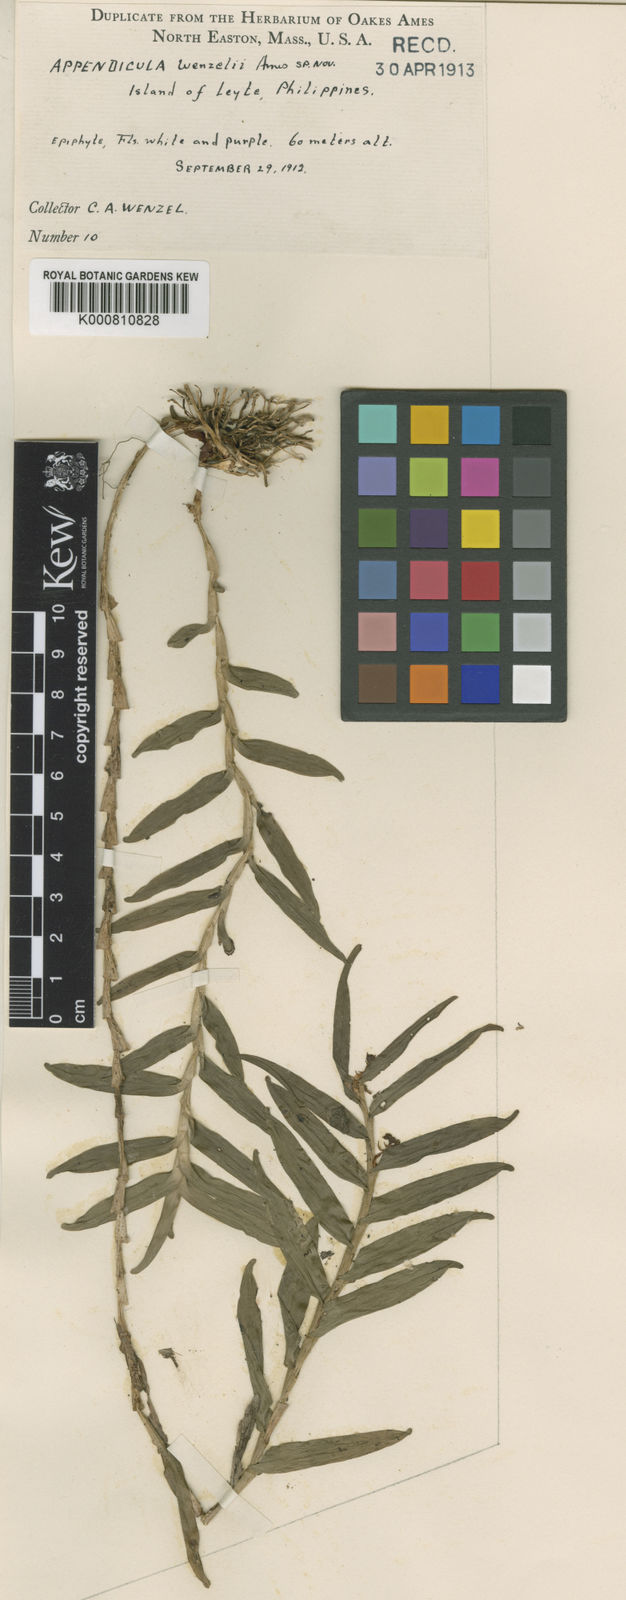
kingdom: Plantae
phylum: Tracheophyta
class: Liliopsida
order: Asparagales
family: Orchidaceae
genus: Appendicula
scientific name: Appendicula reflexa
